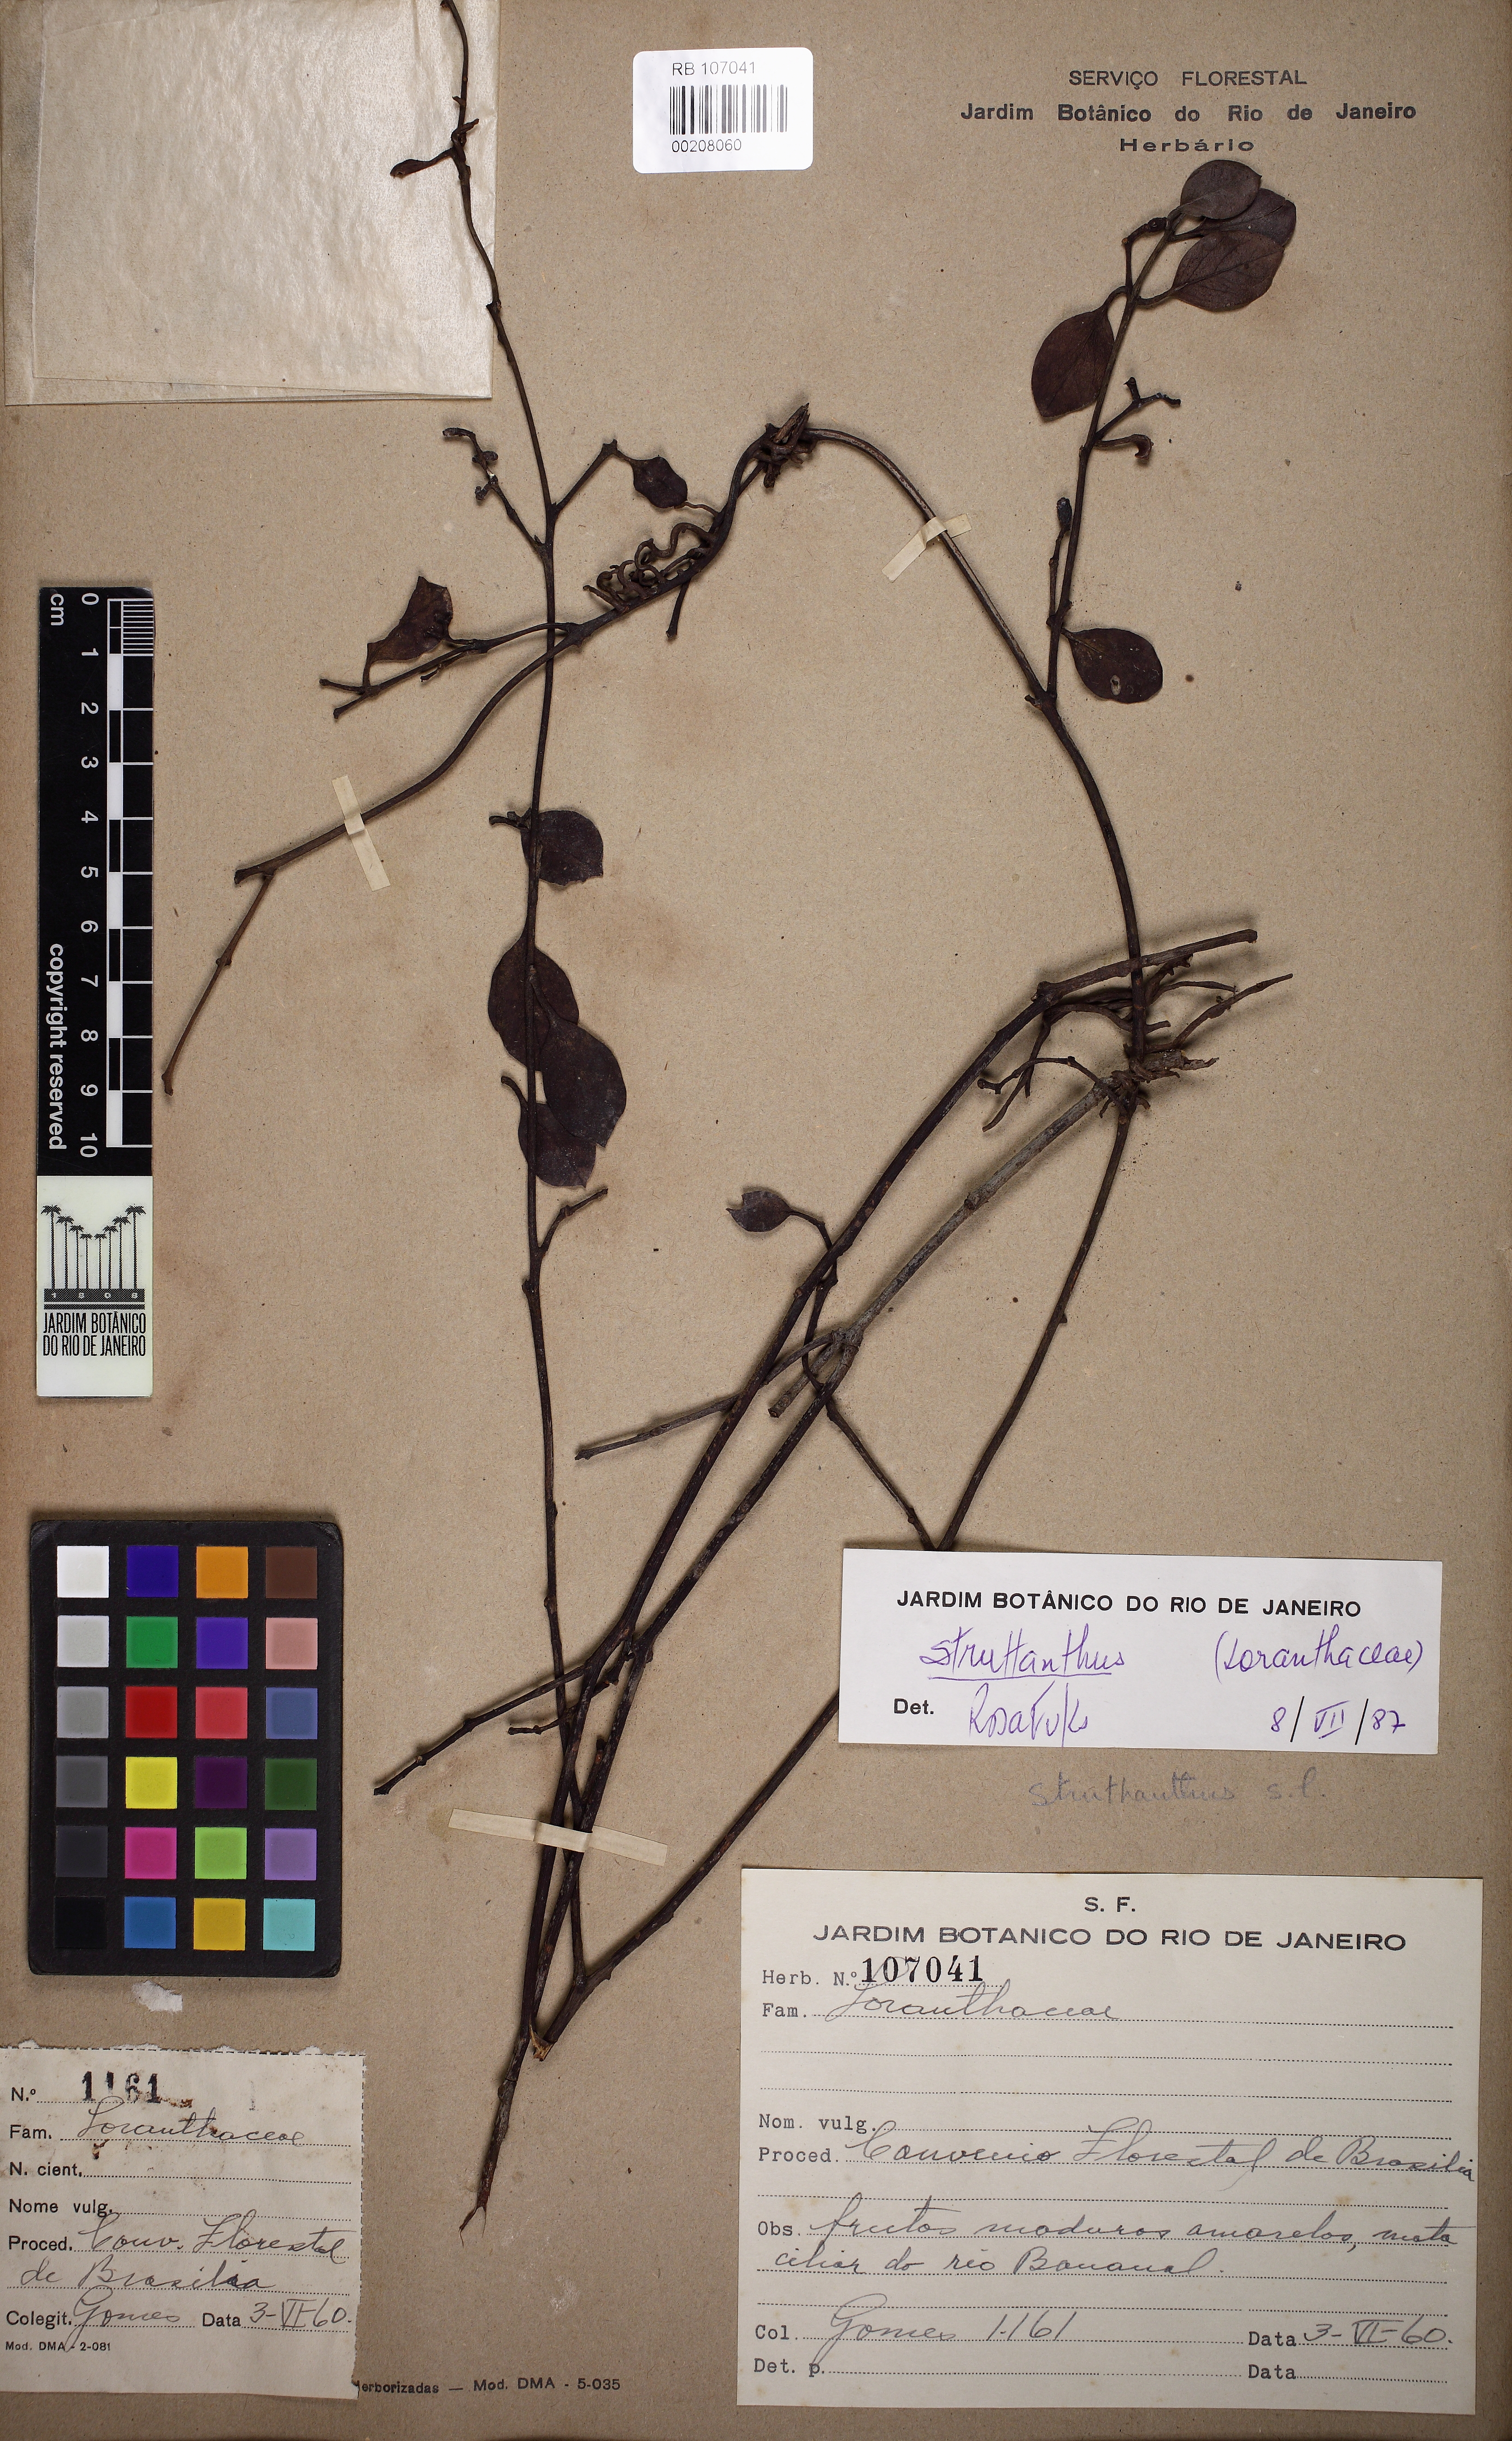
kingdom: Plantae
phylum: Tracheophyta
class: Magnoliopsida
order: Santalales
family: Loranthaceae
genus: Struthanthus
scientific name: Struthanthus
